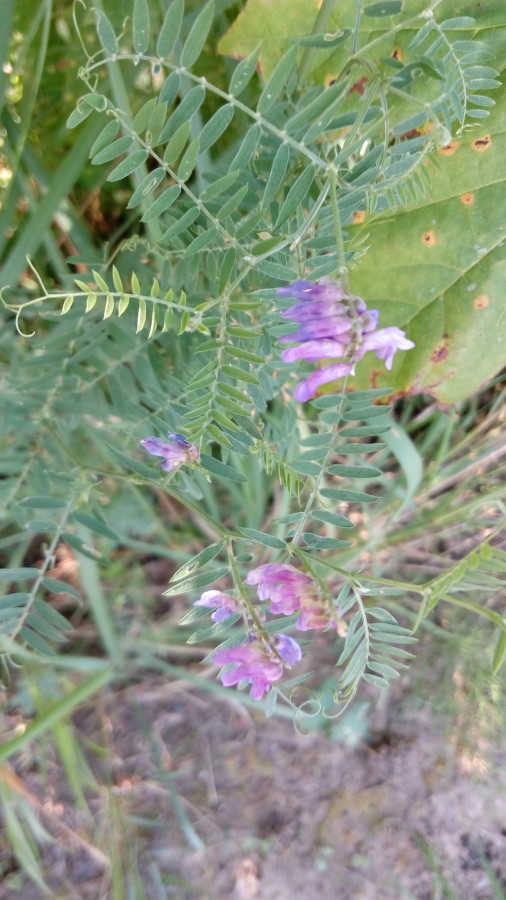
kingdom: Plantae
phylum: Tracheophyta
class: Magnoliopsida
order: Fabales
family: Fabaceae
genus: Vicia
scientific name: Vicia cracca
